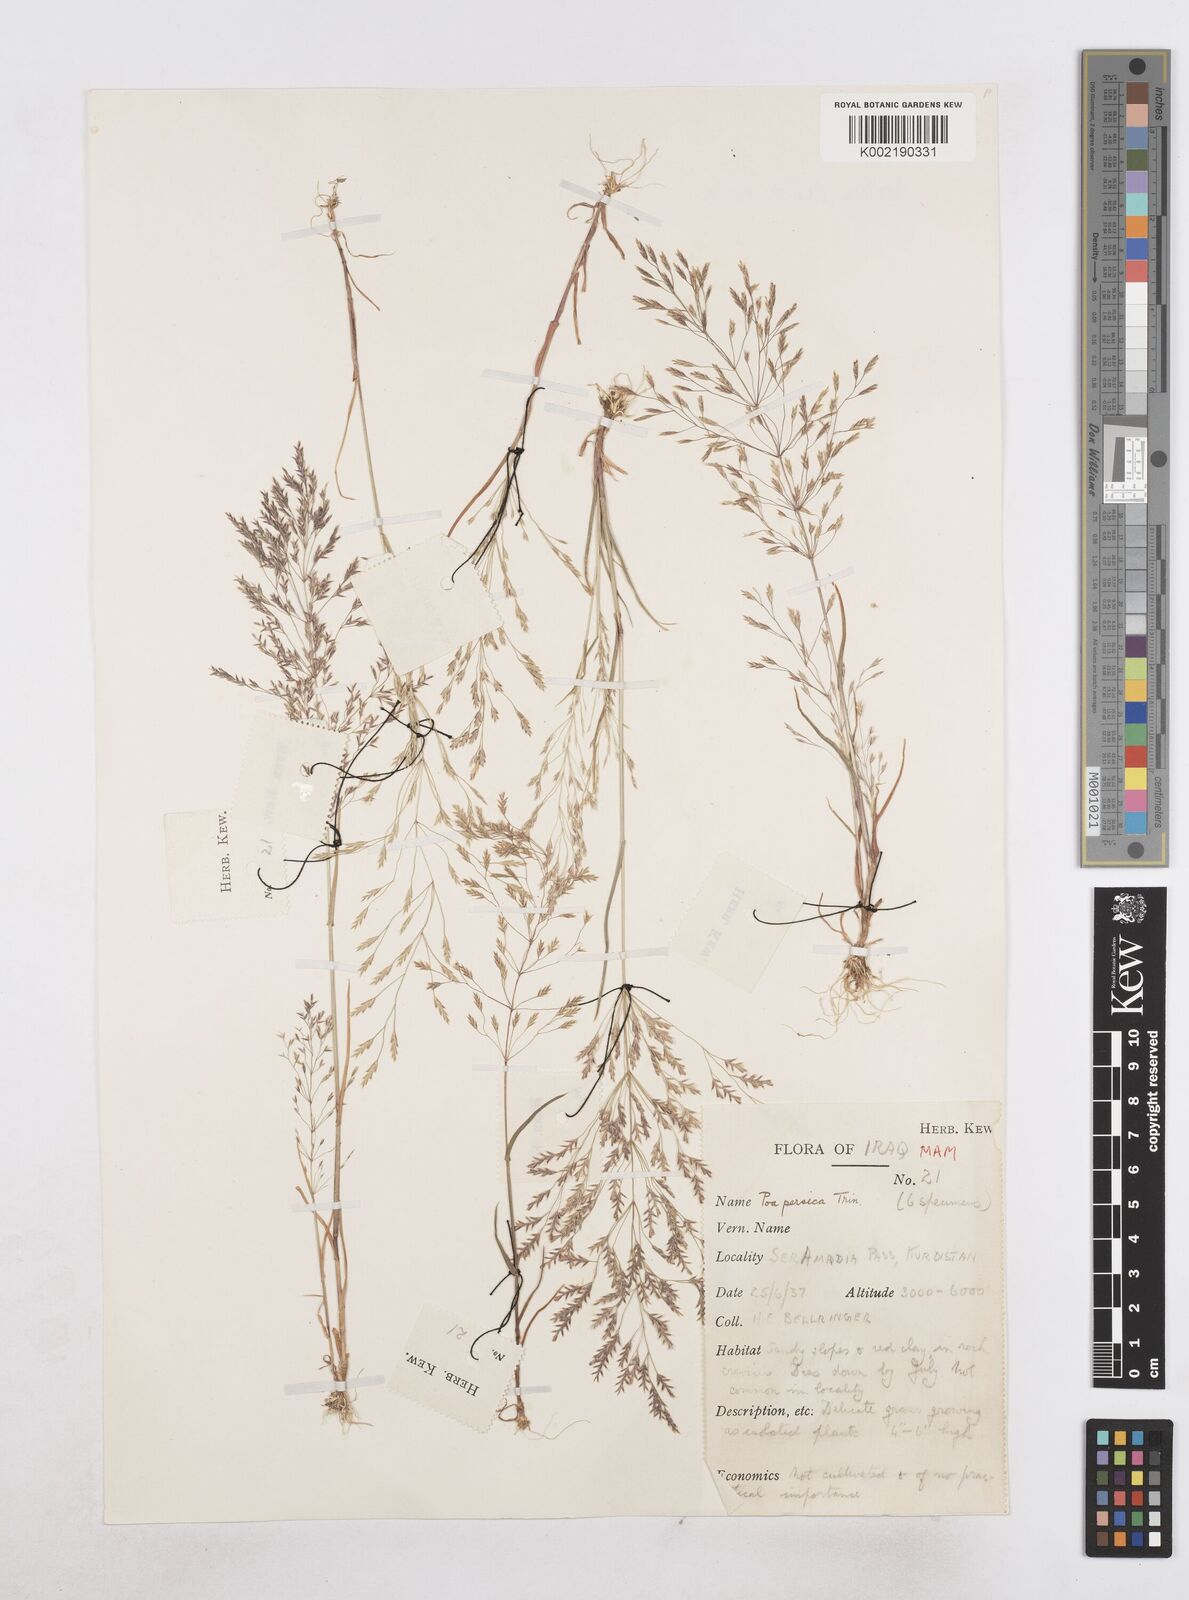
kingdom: Plantae
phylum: Tracheophyta
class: Liliopsida
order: Poales
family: Poaceae
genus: Poa
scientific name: Poa persica
